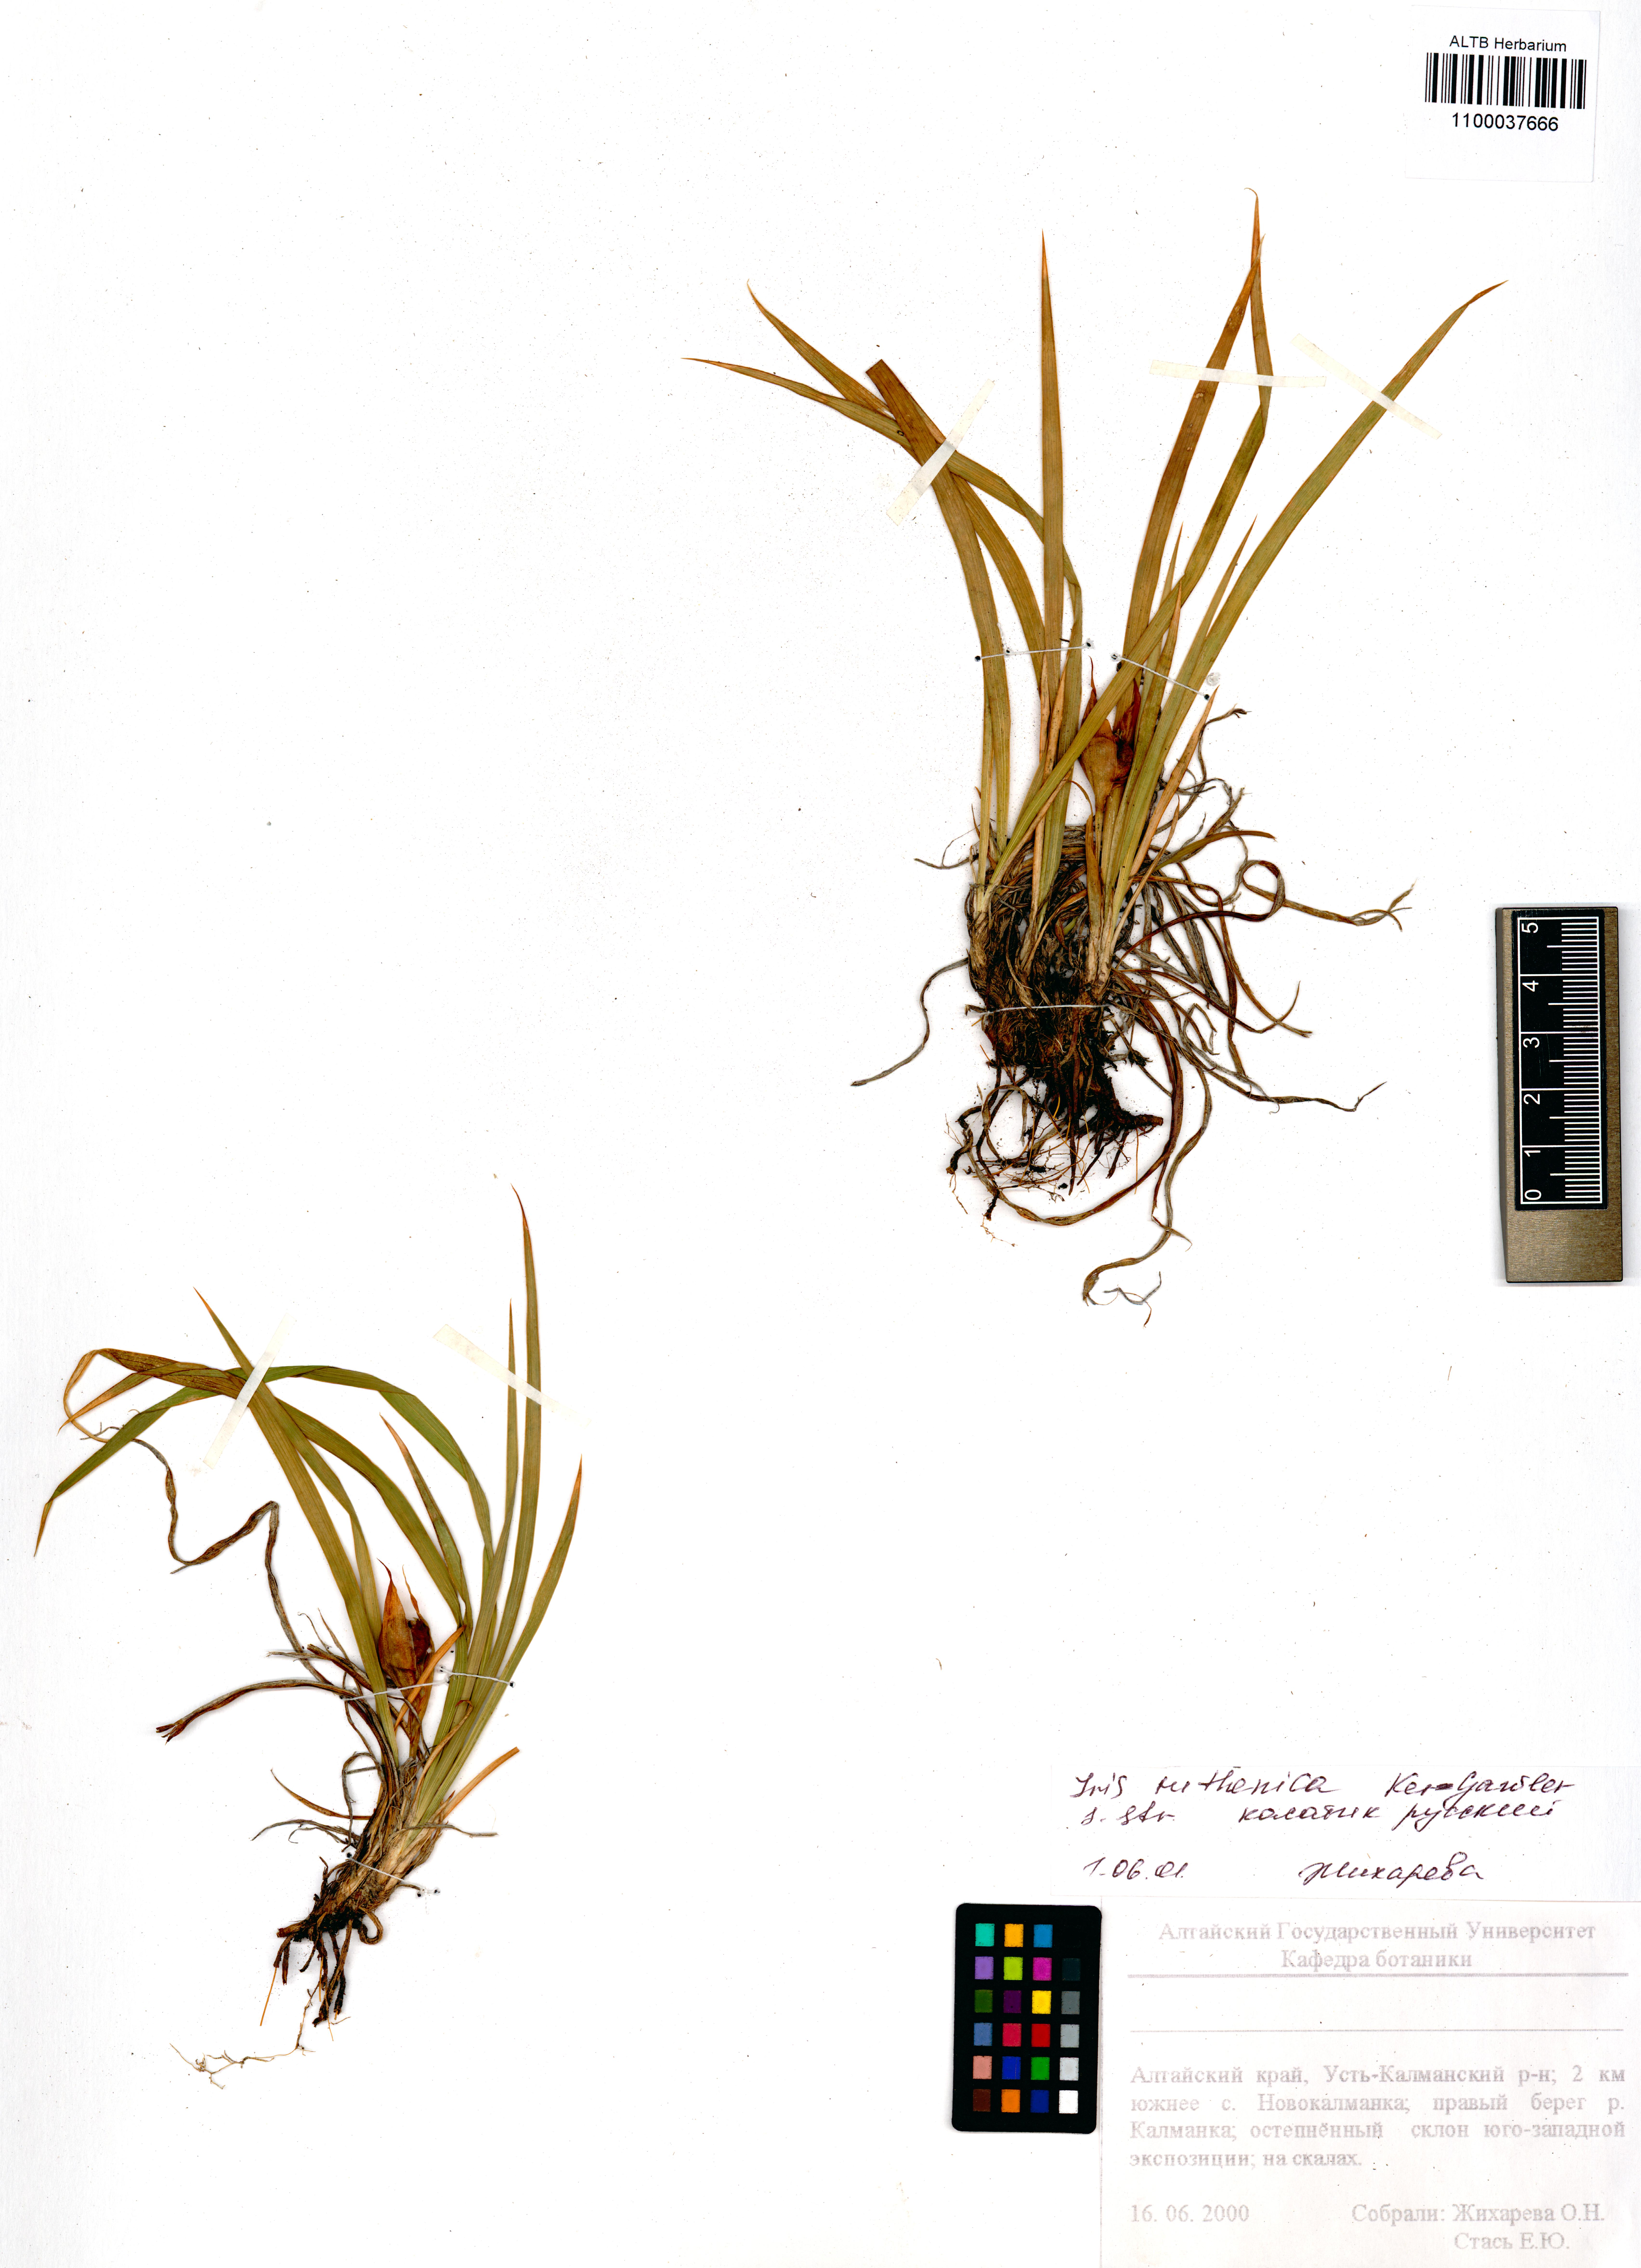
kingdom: Plantae
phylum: Tracheophyta
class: Liliopsida
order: Asparagales
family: Iridaceae
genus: Iris
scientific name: Iris ruthenica
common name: Purple-bract iris
